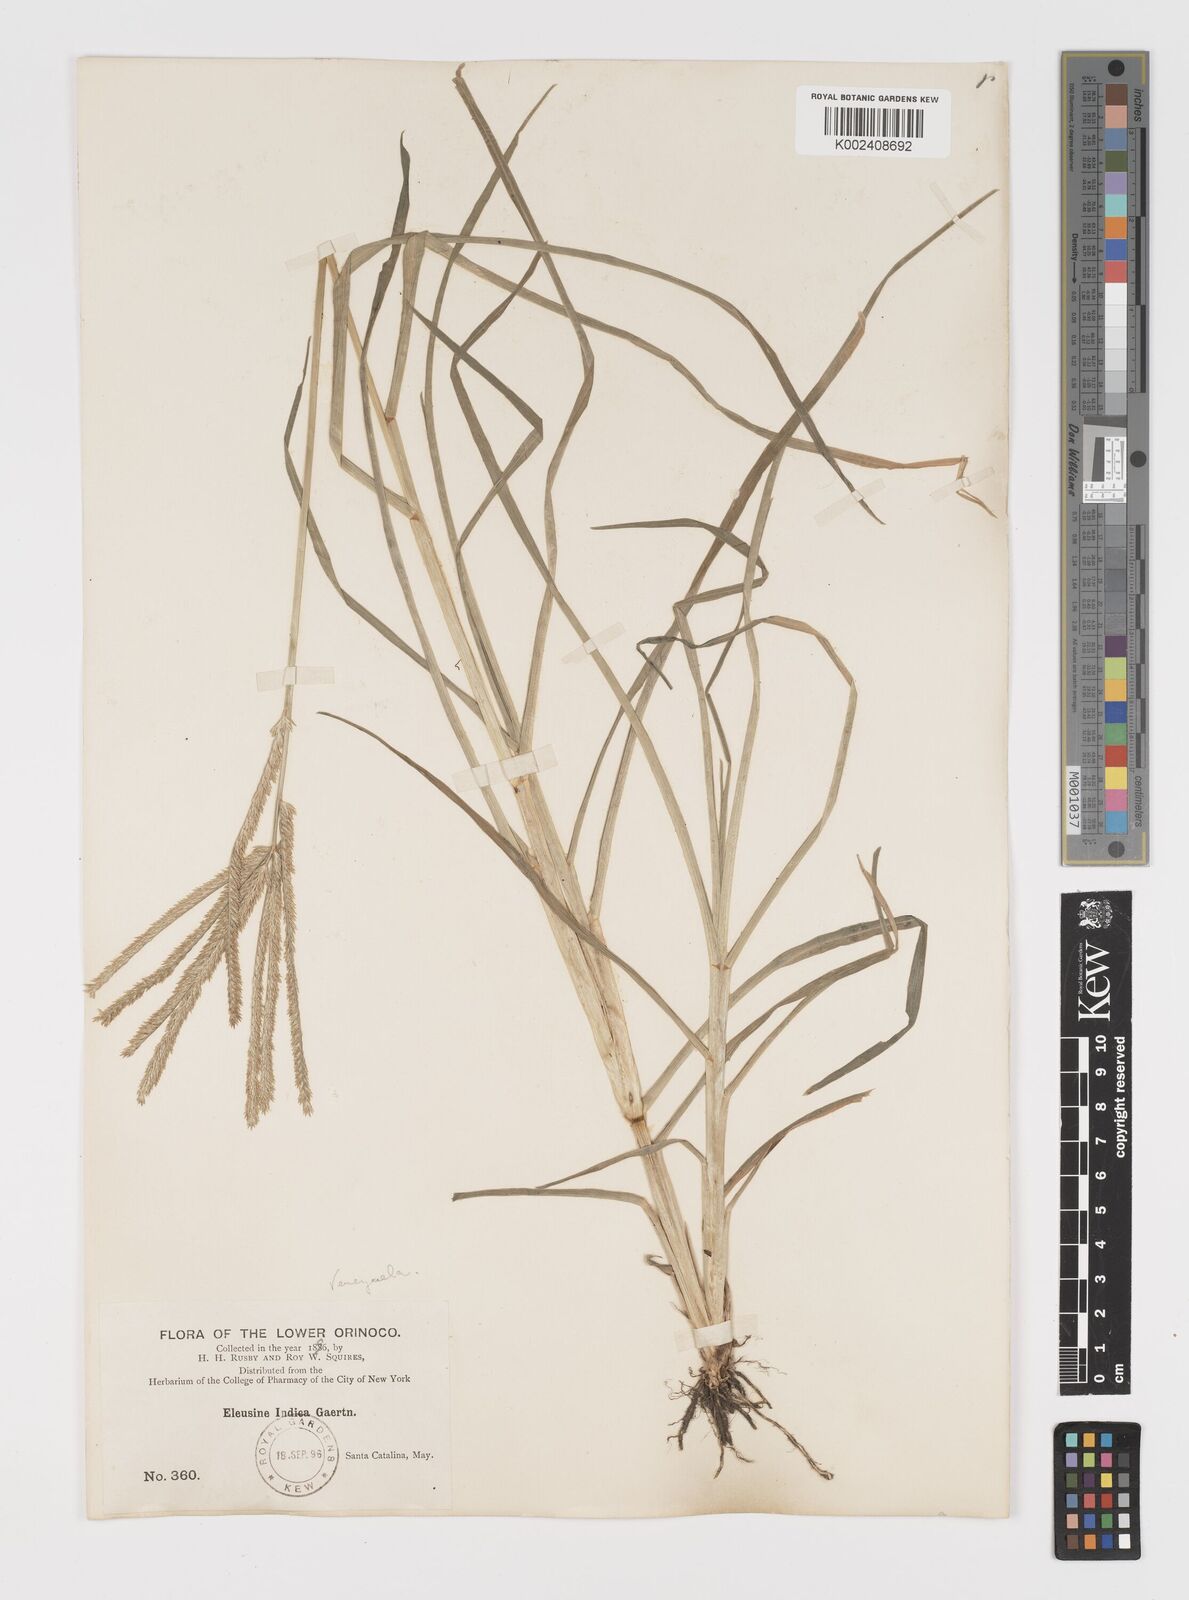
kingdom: Plantae
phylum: Tracheophyta
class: Liliopsida
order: Poales
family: Poaceae
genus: Eleusine
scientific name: Eleusine indica
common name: Yard-grass
